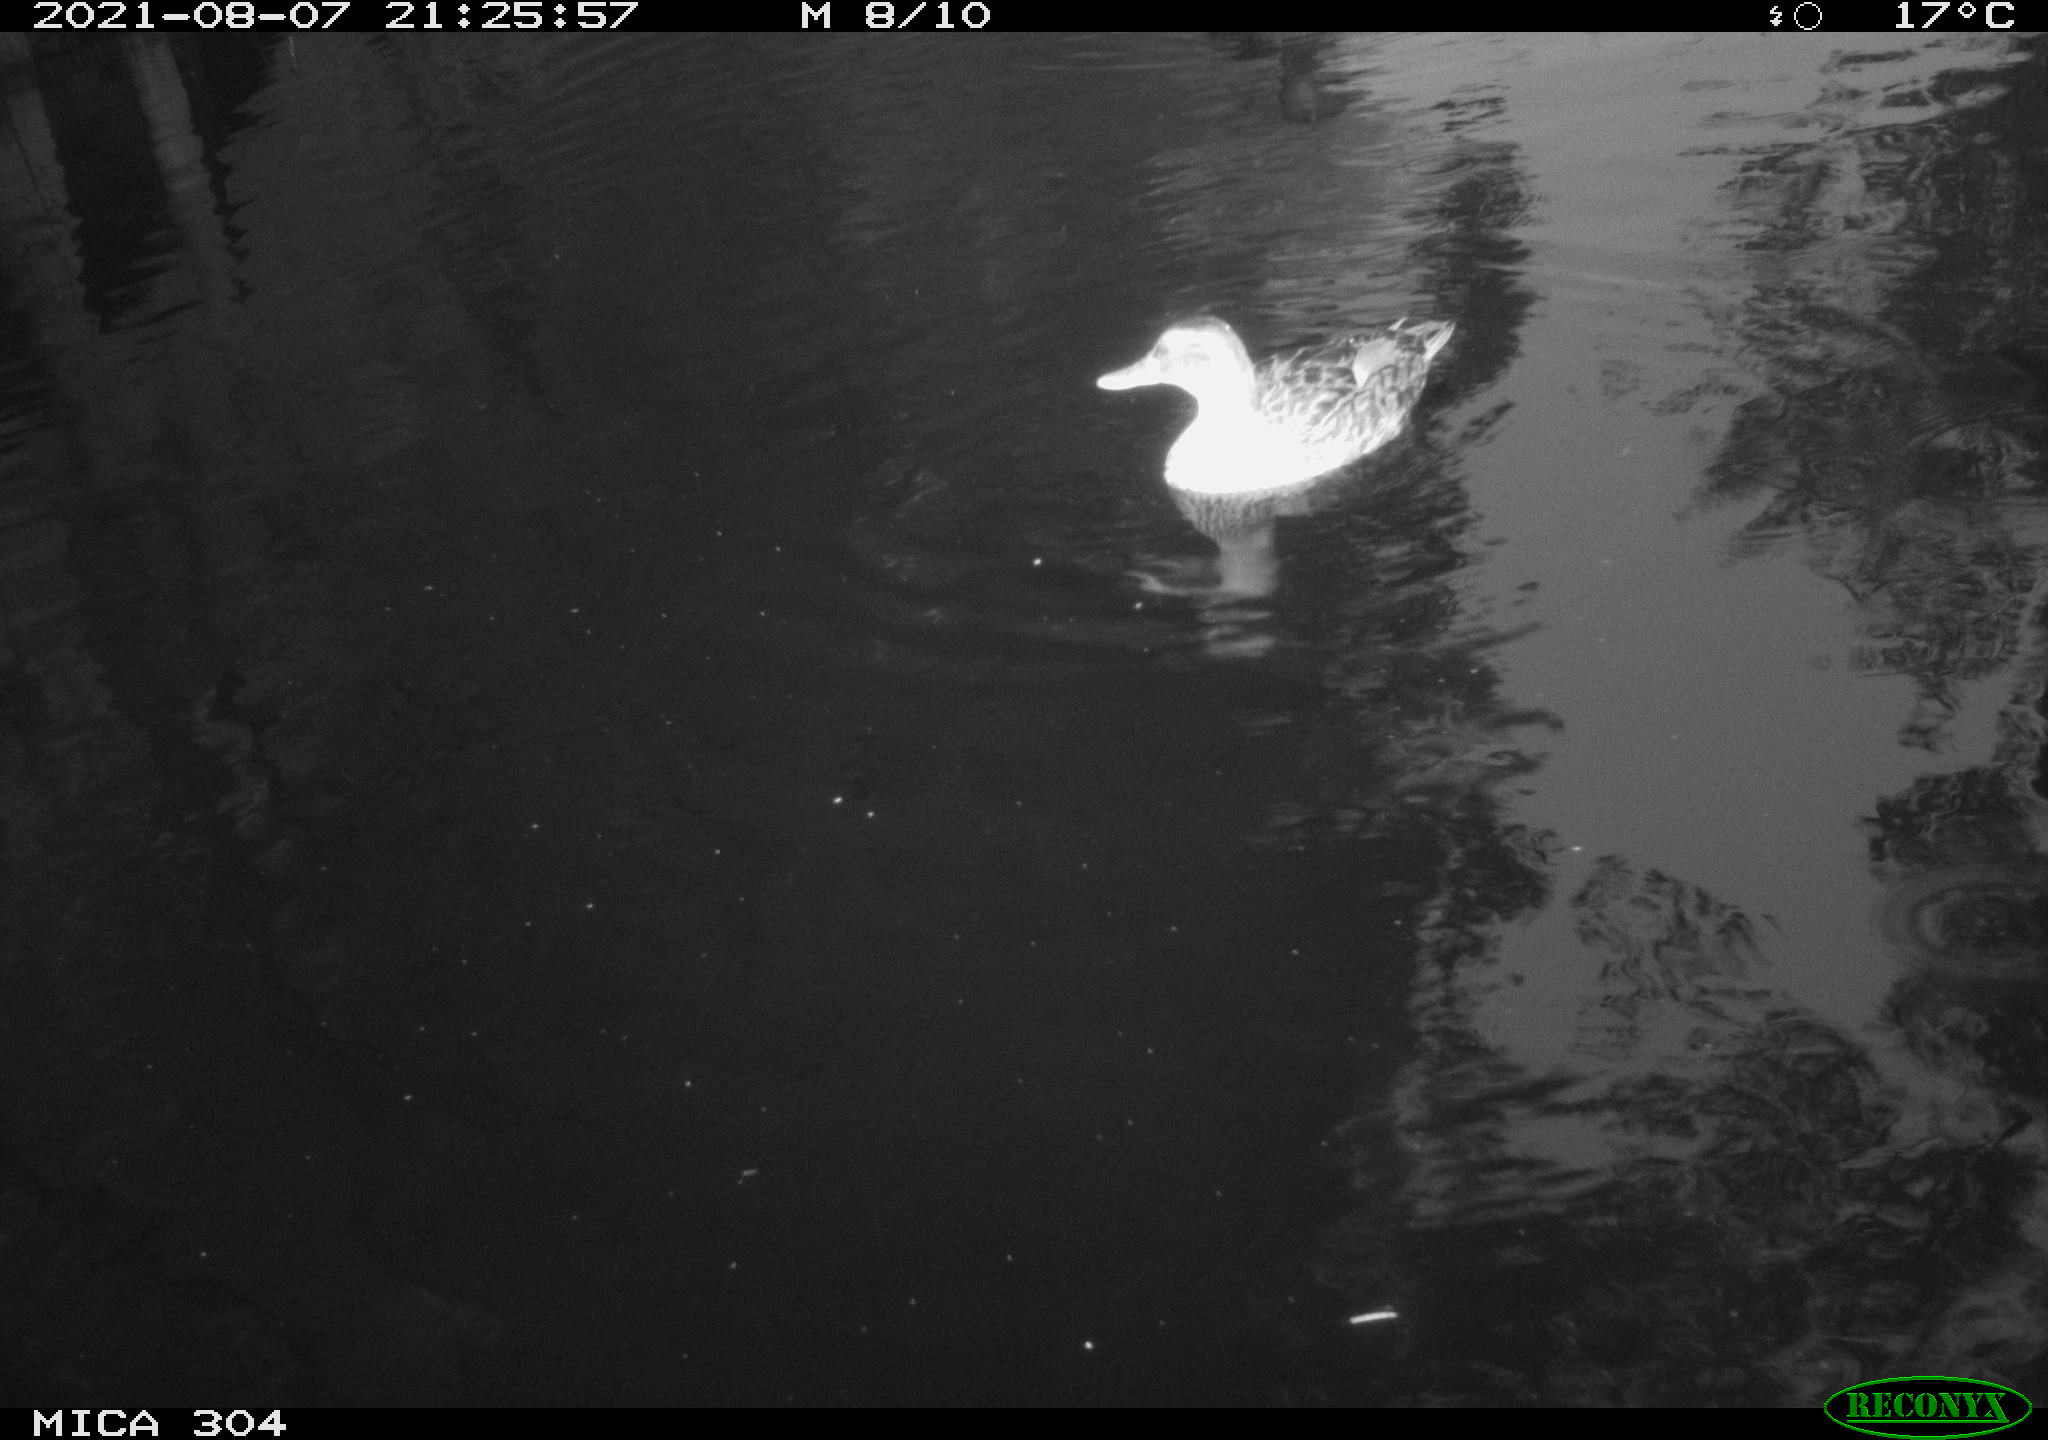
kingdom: Animalia
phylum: Chordata
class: Aves
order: Pelecaniformes
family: Ardeidae
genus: Ardea
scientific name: Ardea
